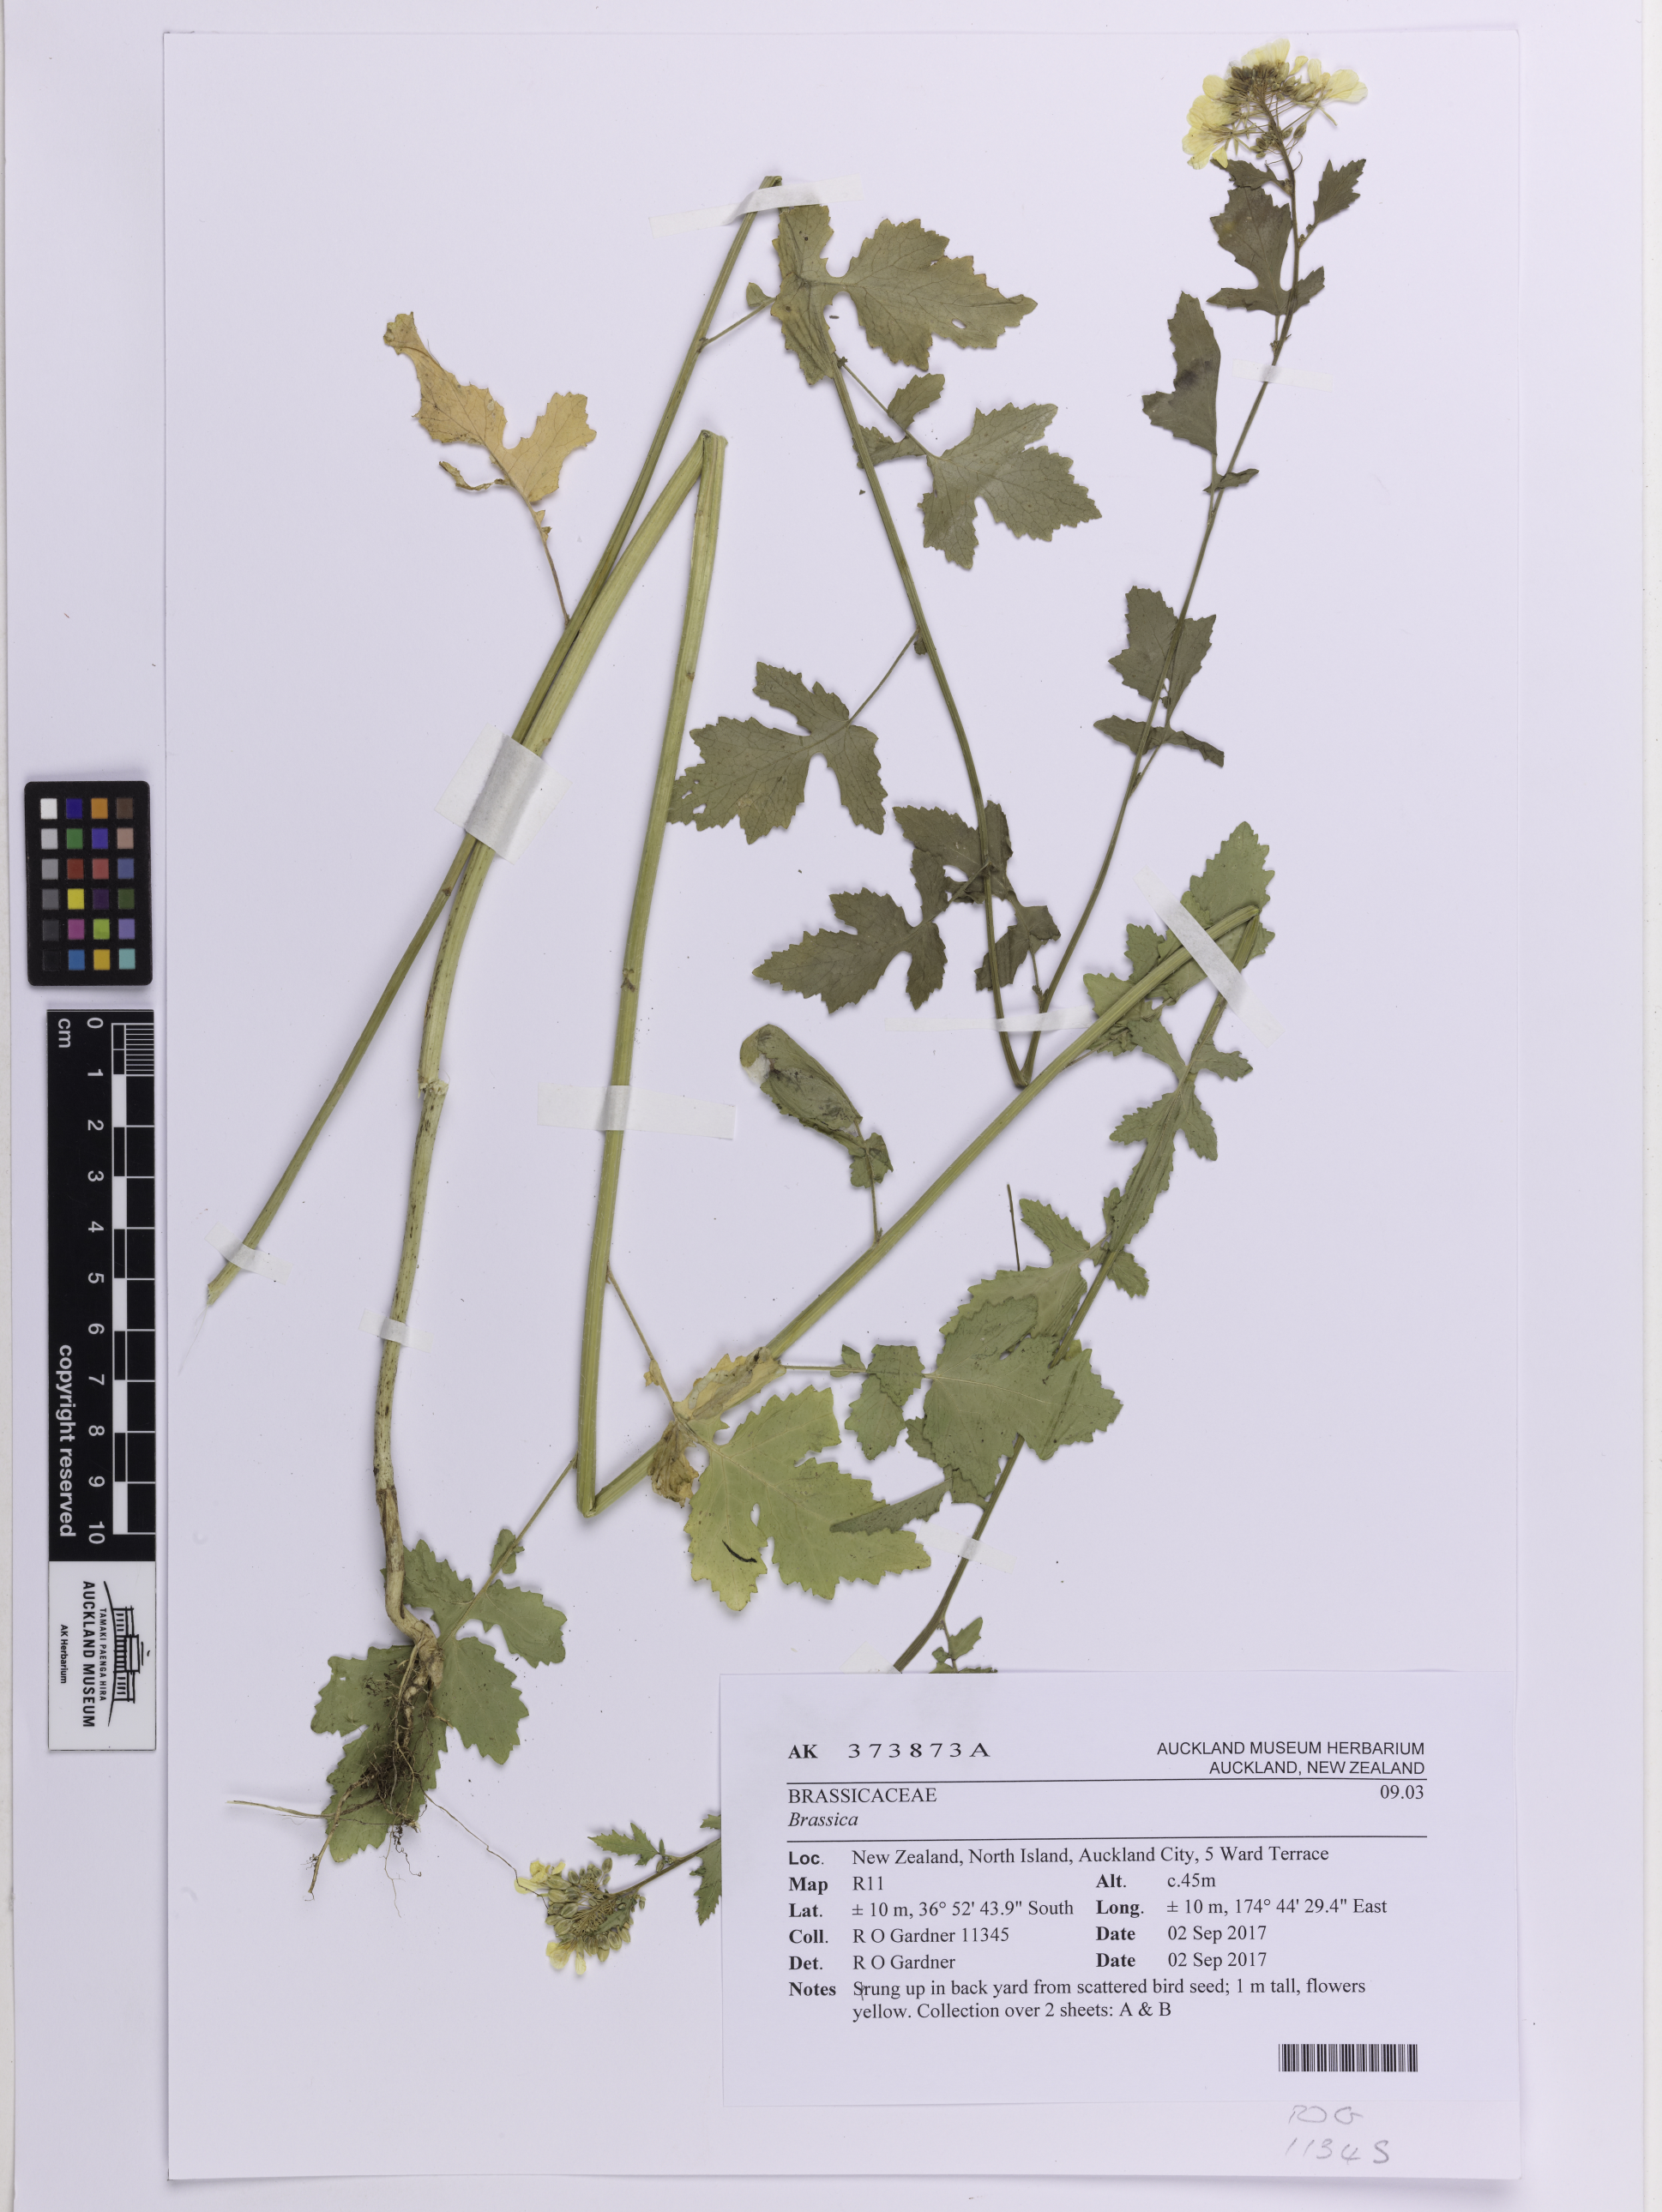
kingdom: Plantae
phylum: Tracheophyta
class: Magnoliopsida
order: Brassicales
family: Brassicaceae
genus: Brassica
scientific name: Brassica
